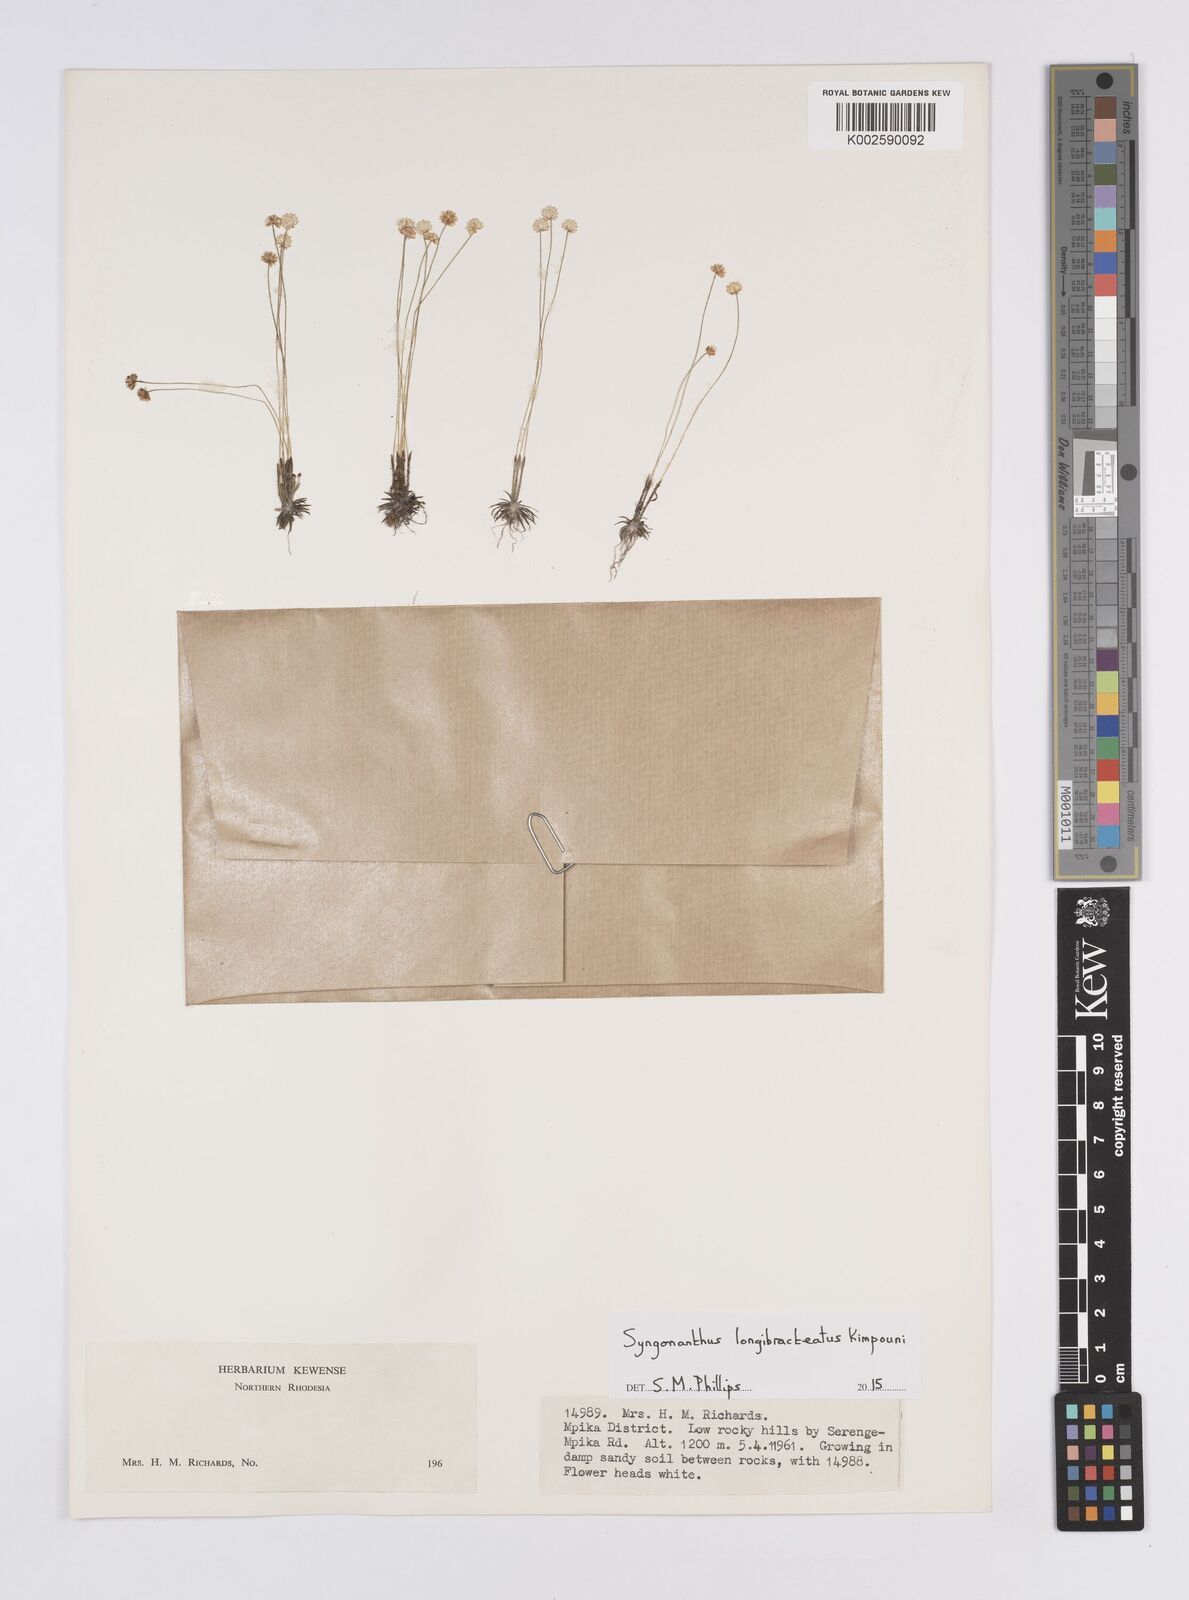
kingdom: Plantae
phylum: Tracheophyta
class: Liliopsida
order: Poales
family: Eriocaulaceae
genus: Syngonanthus
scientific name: Syngonanthus longibracteatus
